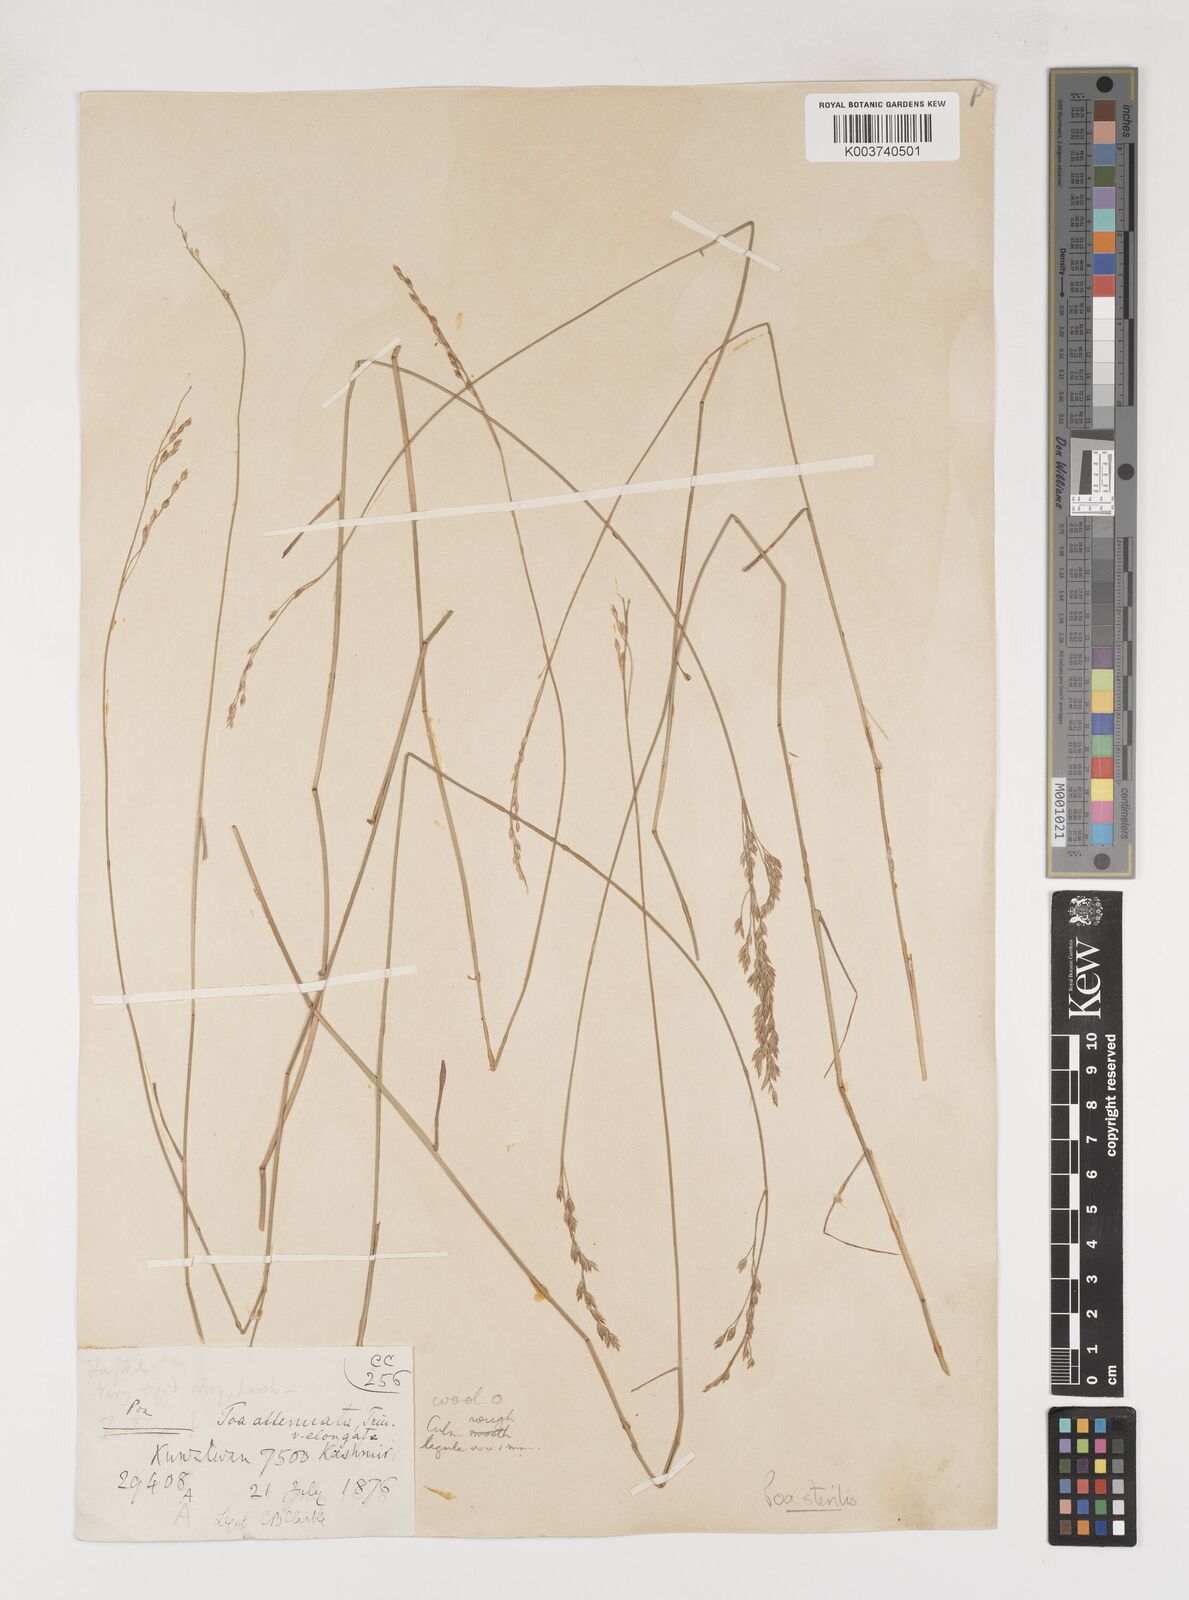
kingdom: Plantae
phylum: Tracheophyta
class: Liliopsida
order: Poales
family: Poaceae
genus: Poa
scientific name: Poa sterilis
